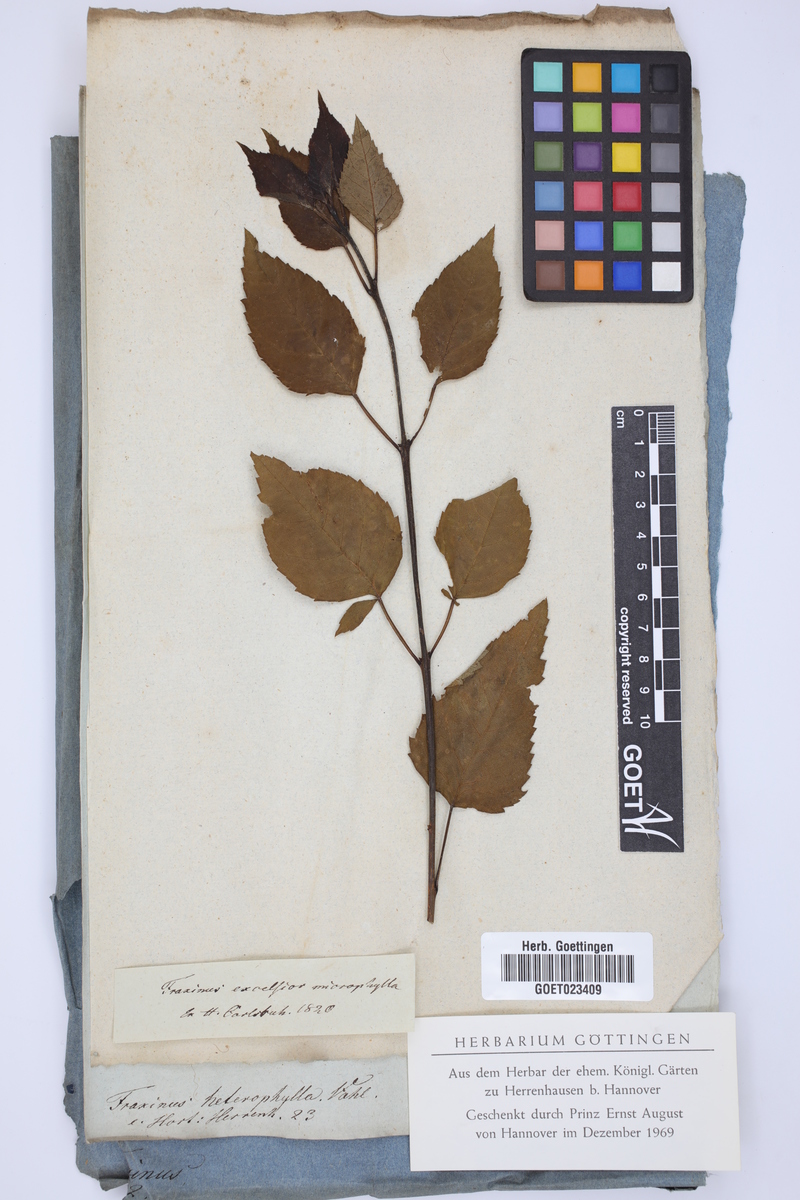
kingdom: Plantae
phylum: Tracheophyta
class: Magnoliopsida
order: Lamiales
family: Oleaceae
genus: Fraxinus
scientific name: Fraxinus excelsior
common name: European ash
